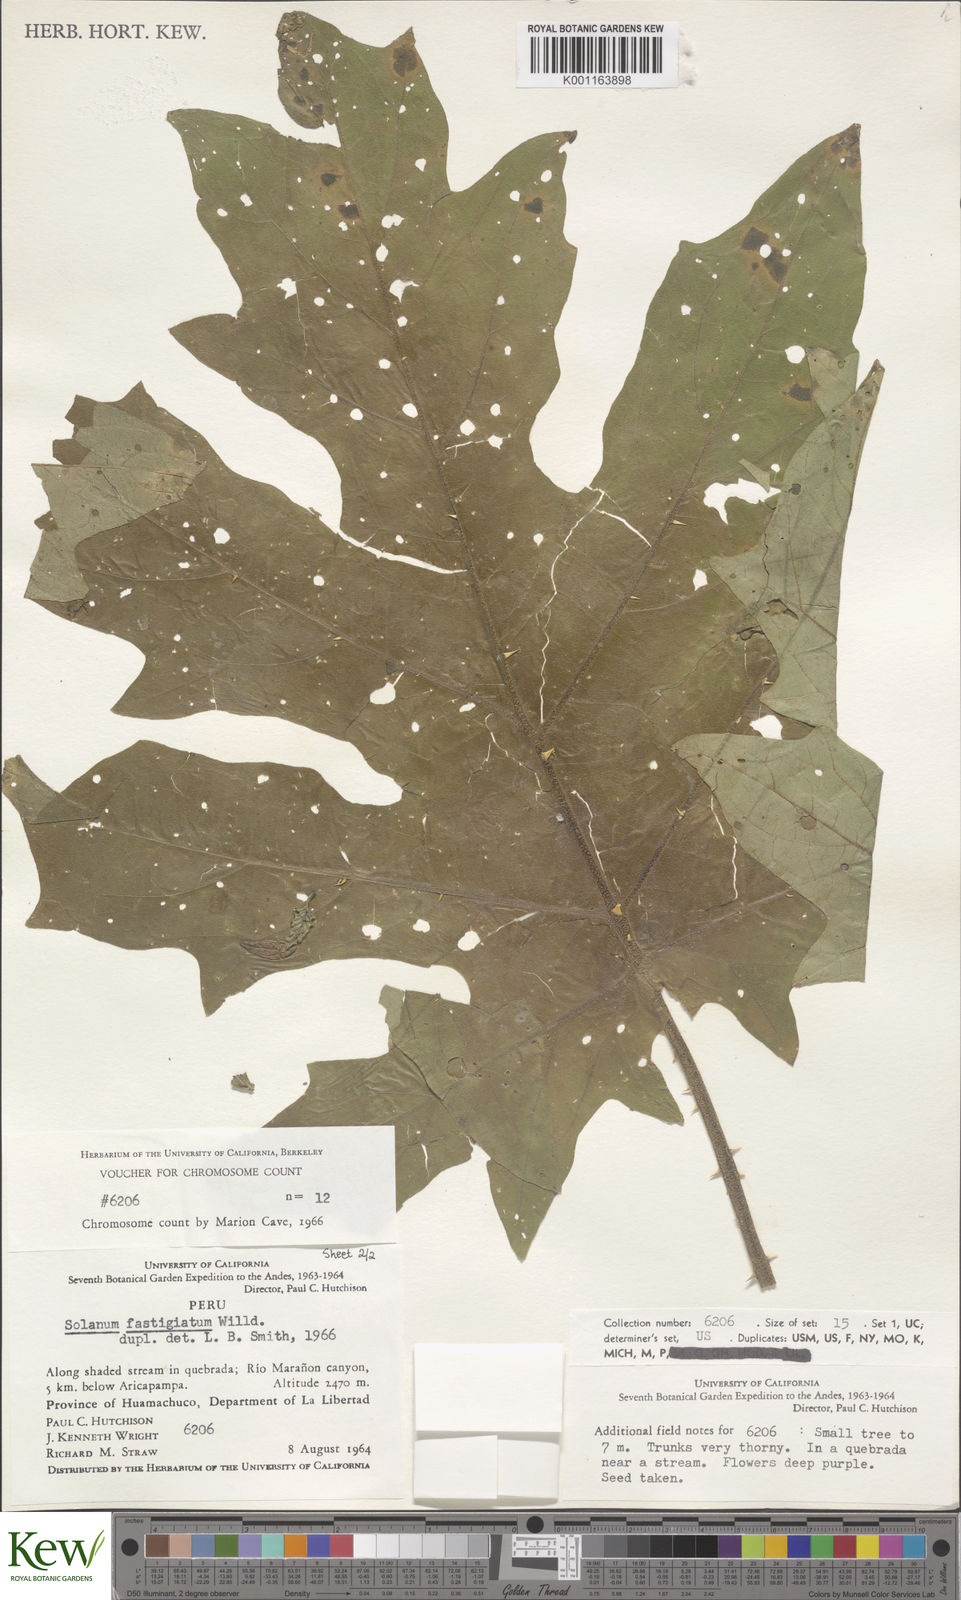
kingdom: Plantae
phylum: Tracheophyta
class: Magnoliopsida
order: Solanales
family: Solanaceae
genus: Solanum
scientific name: Solanum bonariense
